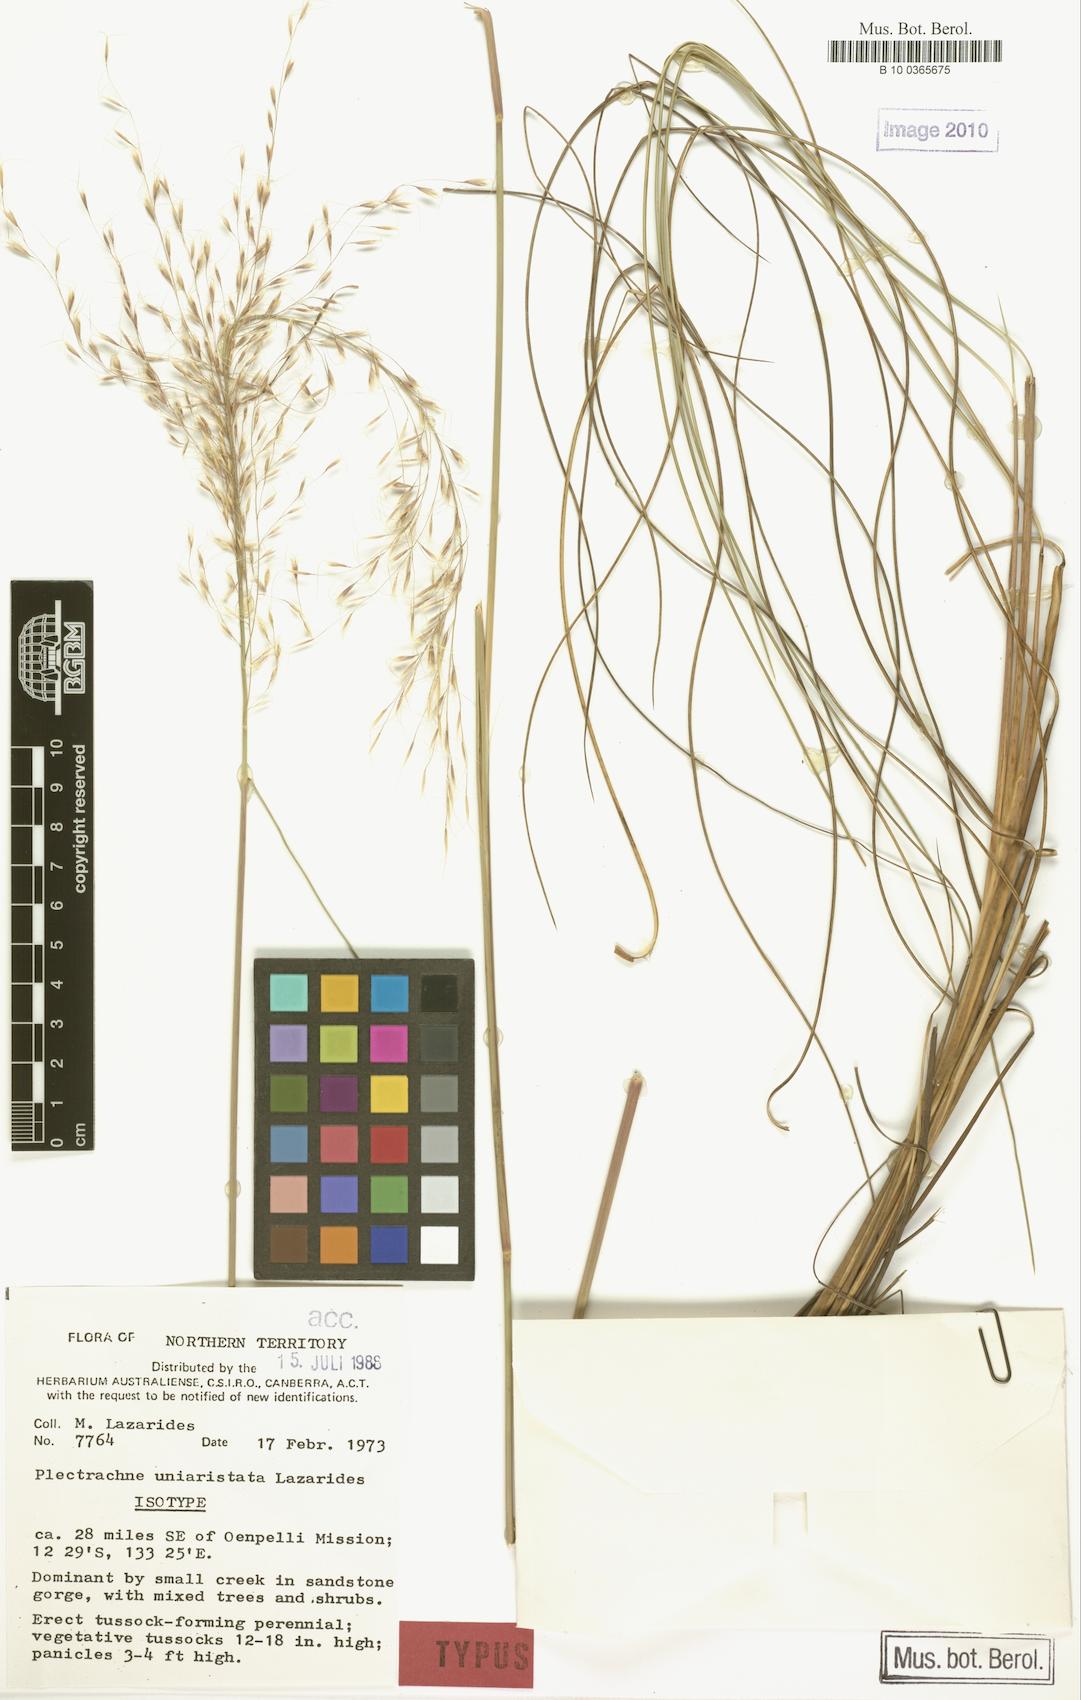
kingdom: Plantae
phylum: Tracheophyta
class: Liliopsida
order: Poales
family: Poaceae
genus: Triodia
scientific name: Triodia uniaristata
